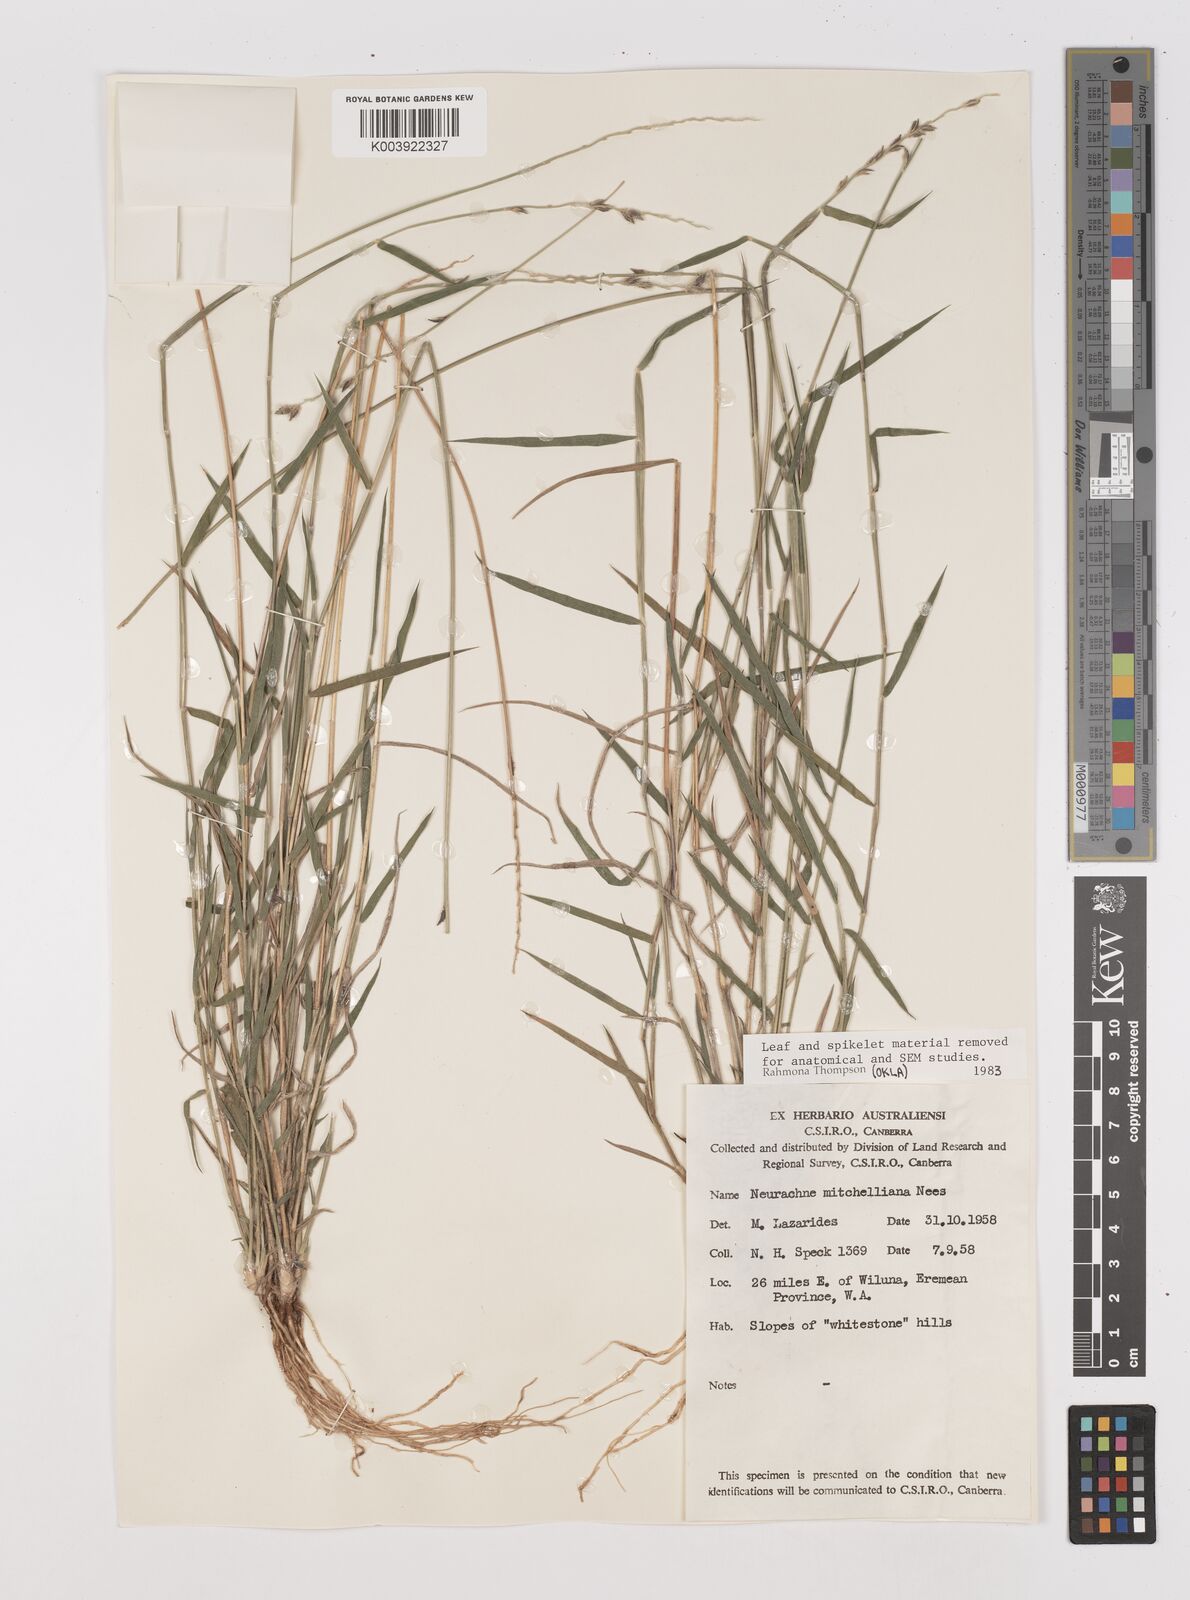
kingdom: Plantae
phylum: Tracheophyta
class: Liliopsida
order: Poales
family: Poaceae
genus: Thyridolepis
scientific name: Thyridolepis mitchelliana
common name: Rock tassel grass
